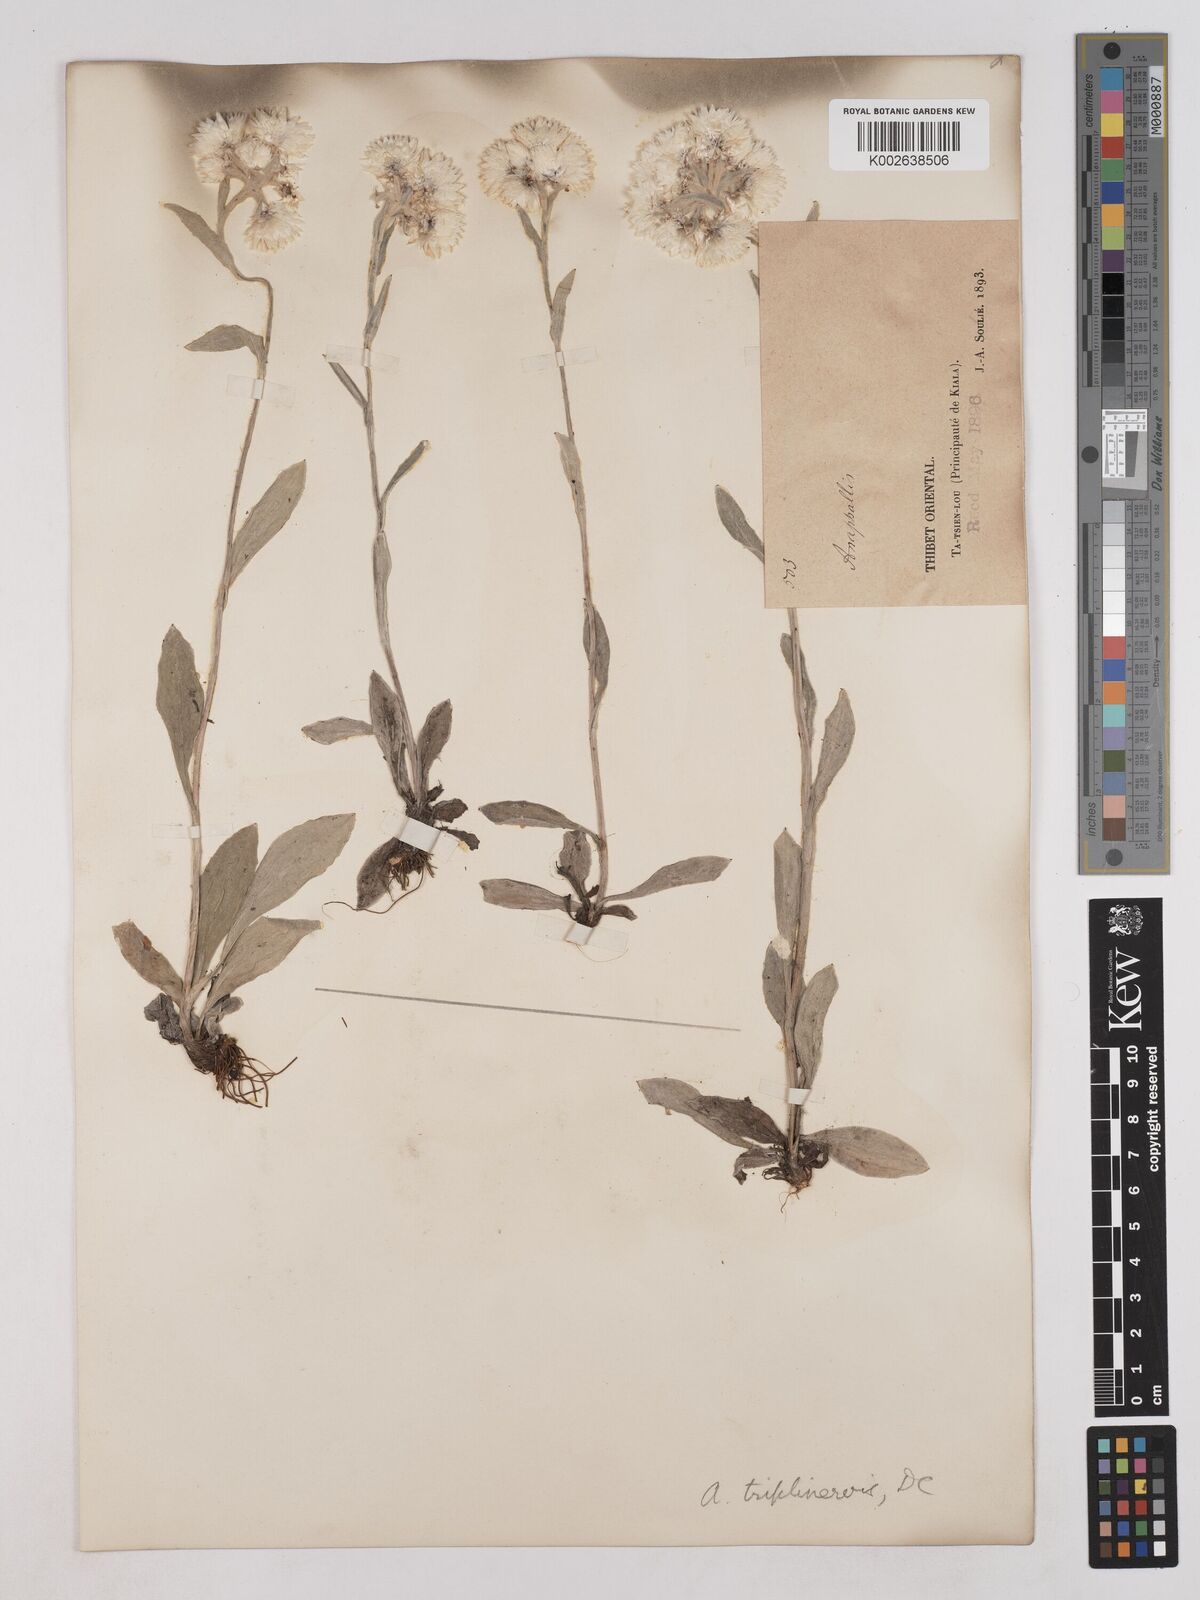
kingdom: Plantae
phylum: Tracheophyta
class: Magnoliopsida
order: Asterales
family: Asteraceae
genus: Anaphalis
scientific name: Anaphalis nepalensis
